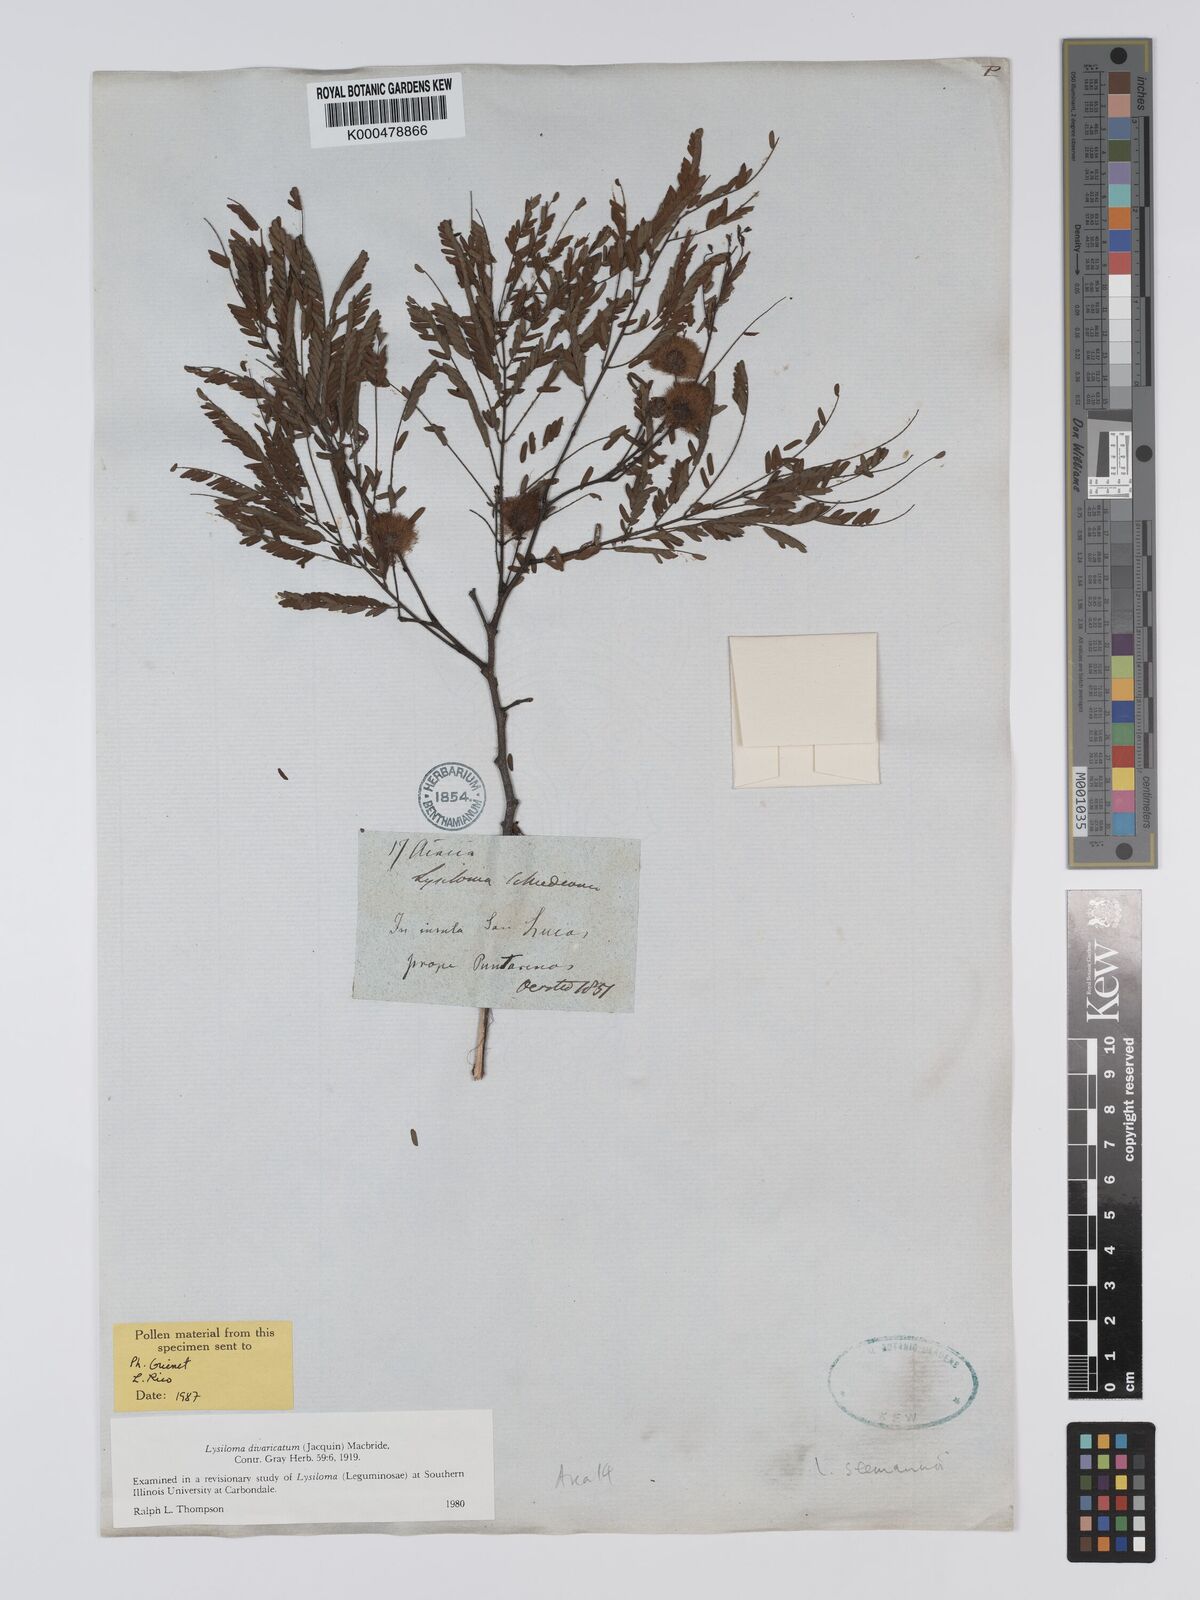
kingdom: Plantae
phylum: Tracheophyta
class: Magnoliopsida
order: Fabales
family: Fabaceae
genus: Lysiloma
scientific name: Lysiloma divaricatum
